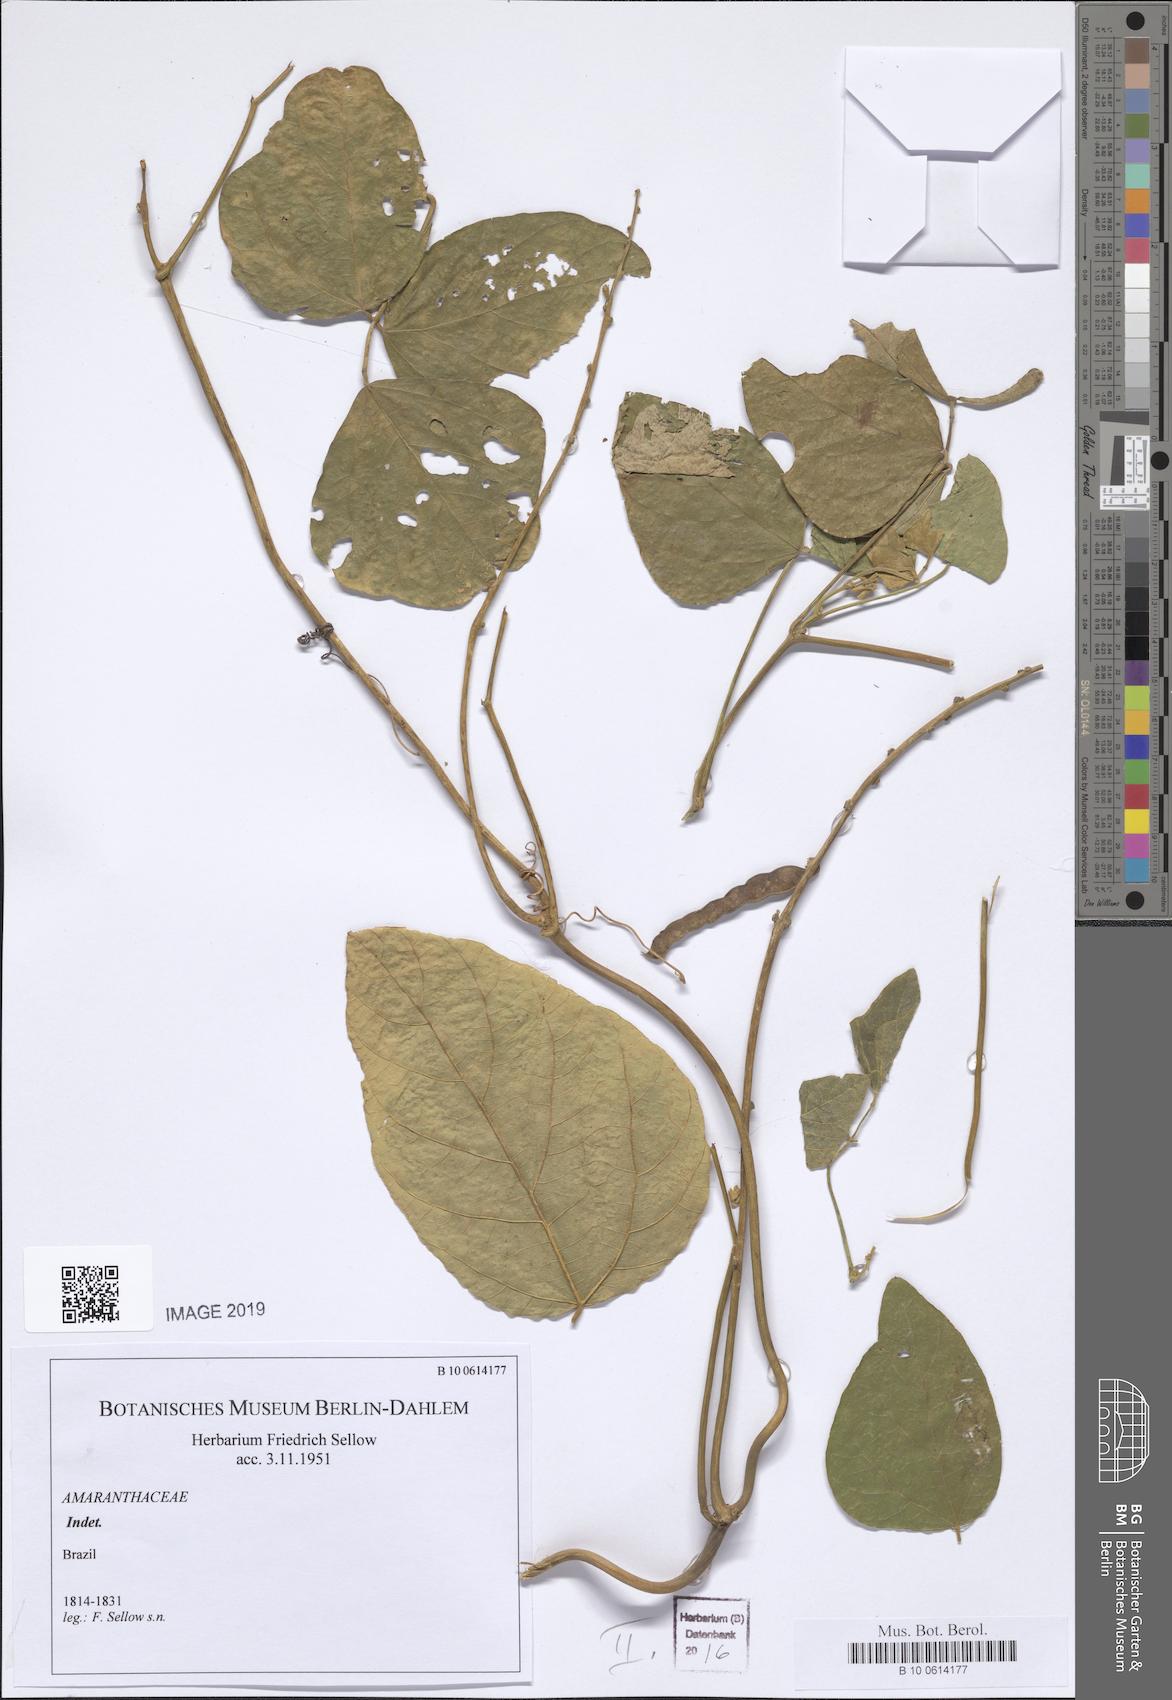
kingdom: Plantae
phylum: Tracheophyta
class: Magnoliopsida
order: Caryophyllales
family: Amaranthaceae
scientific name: Amaranthaceae
